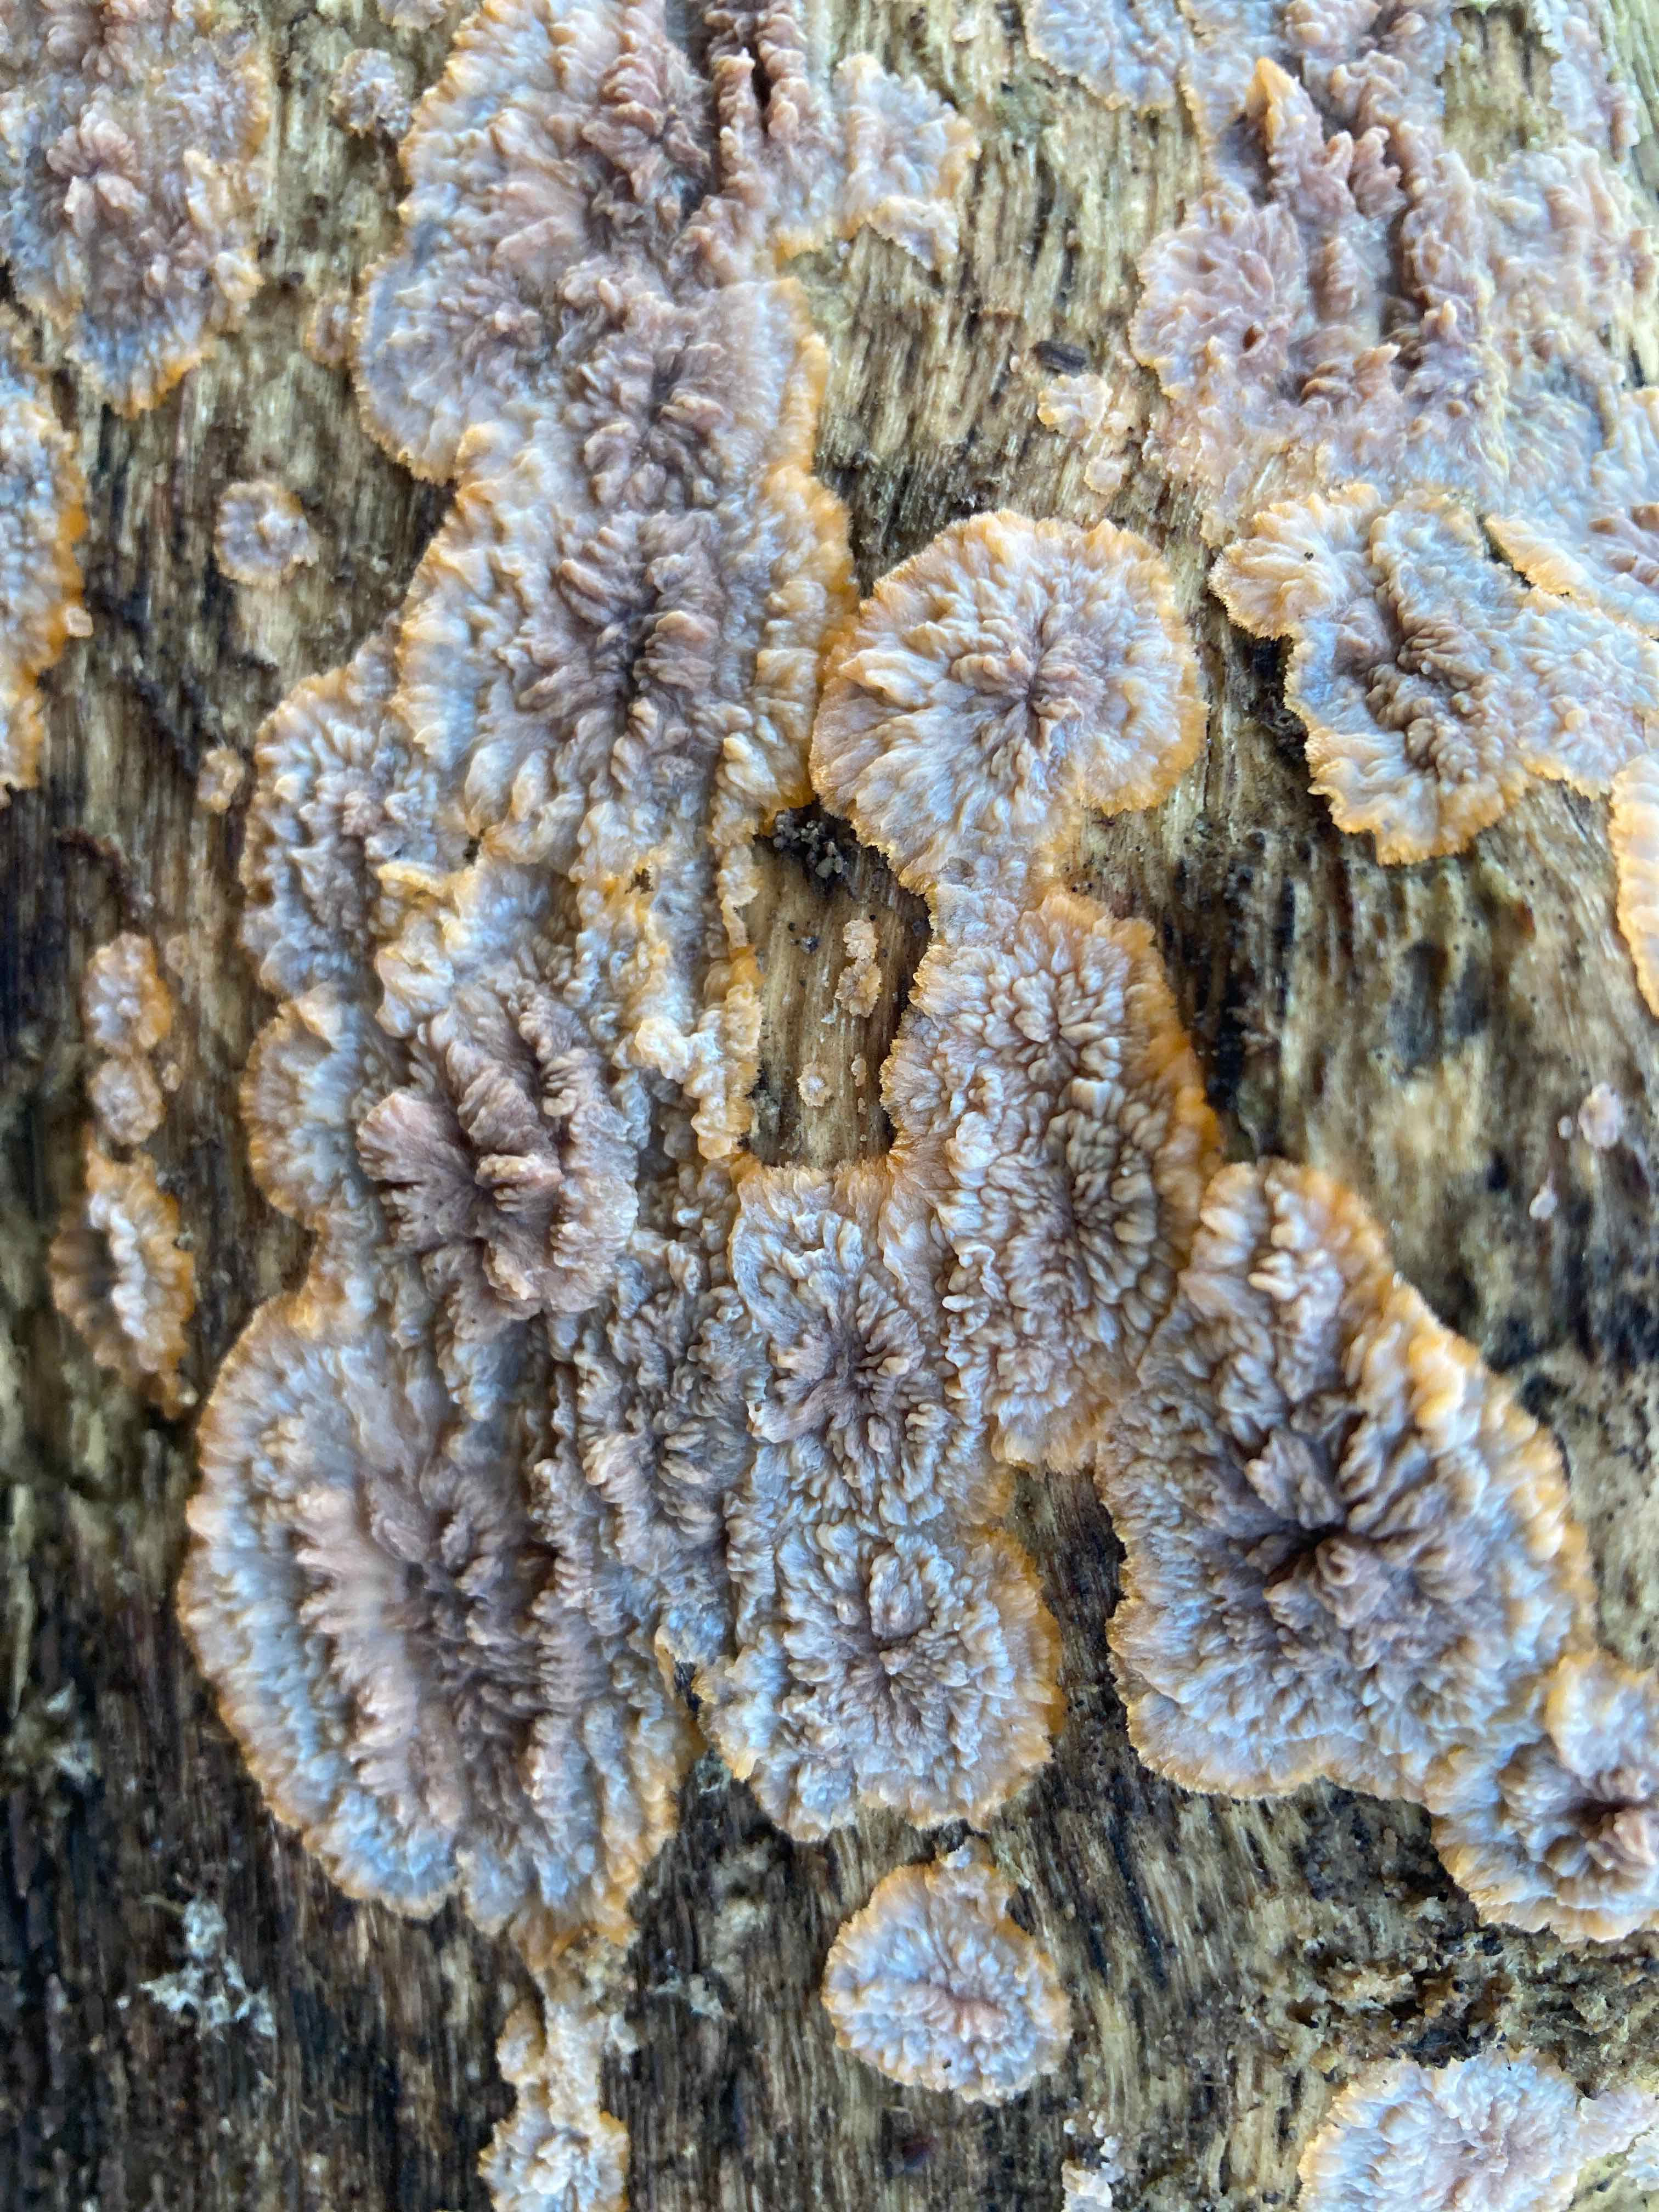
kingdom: Fungi
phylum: Basidiomycota
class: Agaricomycetes
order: Polyporales
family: Meruliaceae
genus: Phlebia
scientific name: Phlebia radiata
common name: stråle-åresvamp
